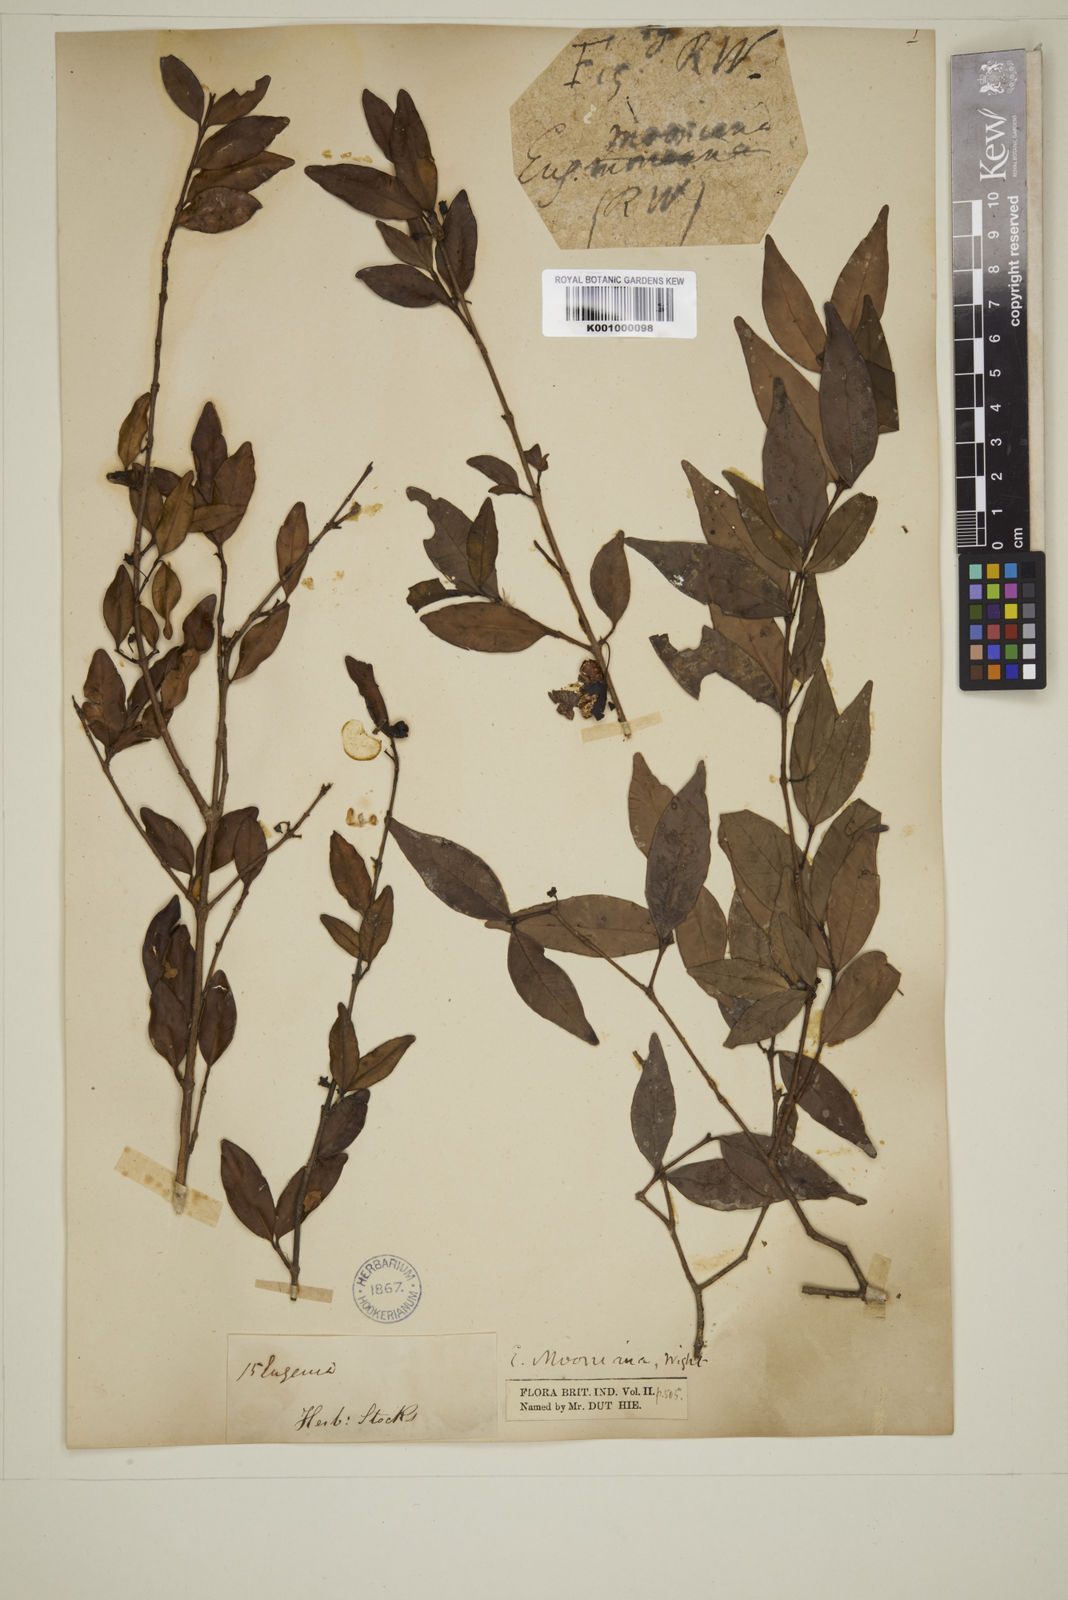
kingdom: Plantae
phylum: Tracheophyta
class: Magnoliopsida
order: Myrtales
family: Myrtaceae
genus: Eugenia
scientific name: Eugenia thwaitesii
